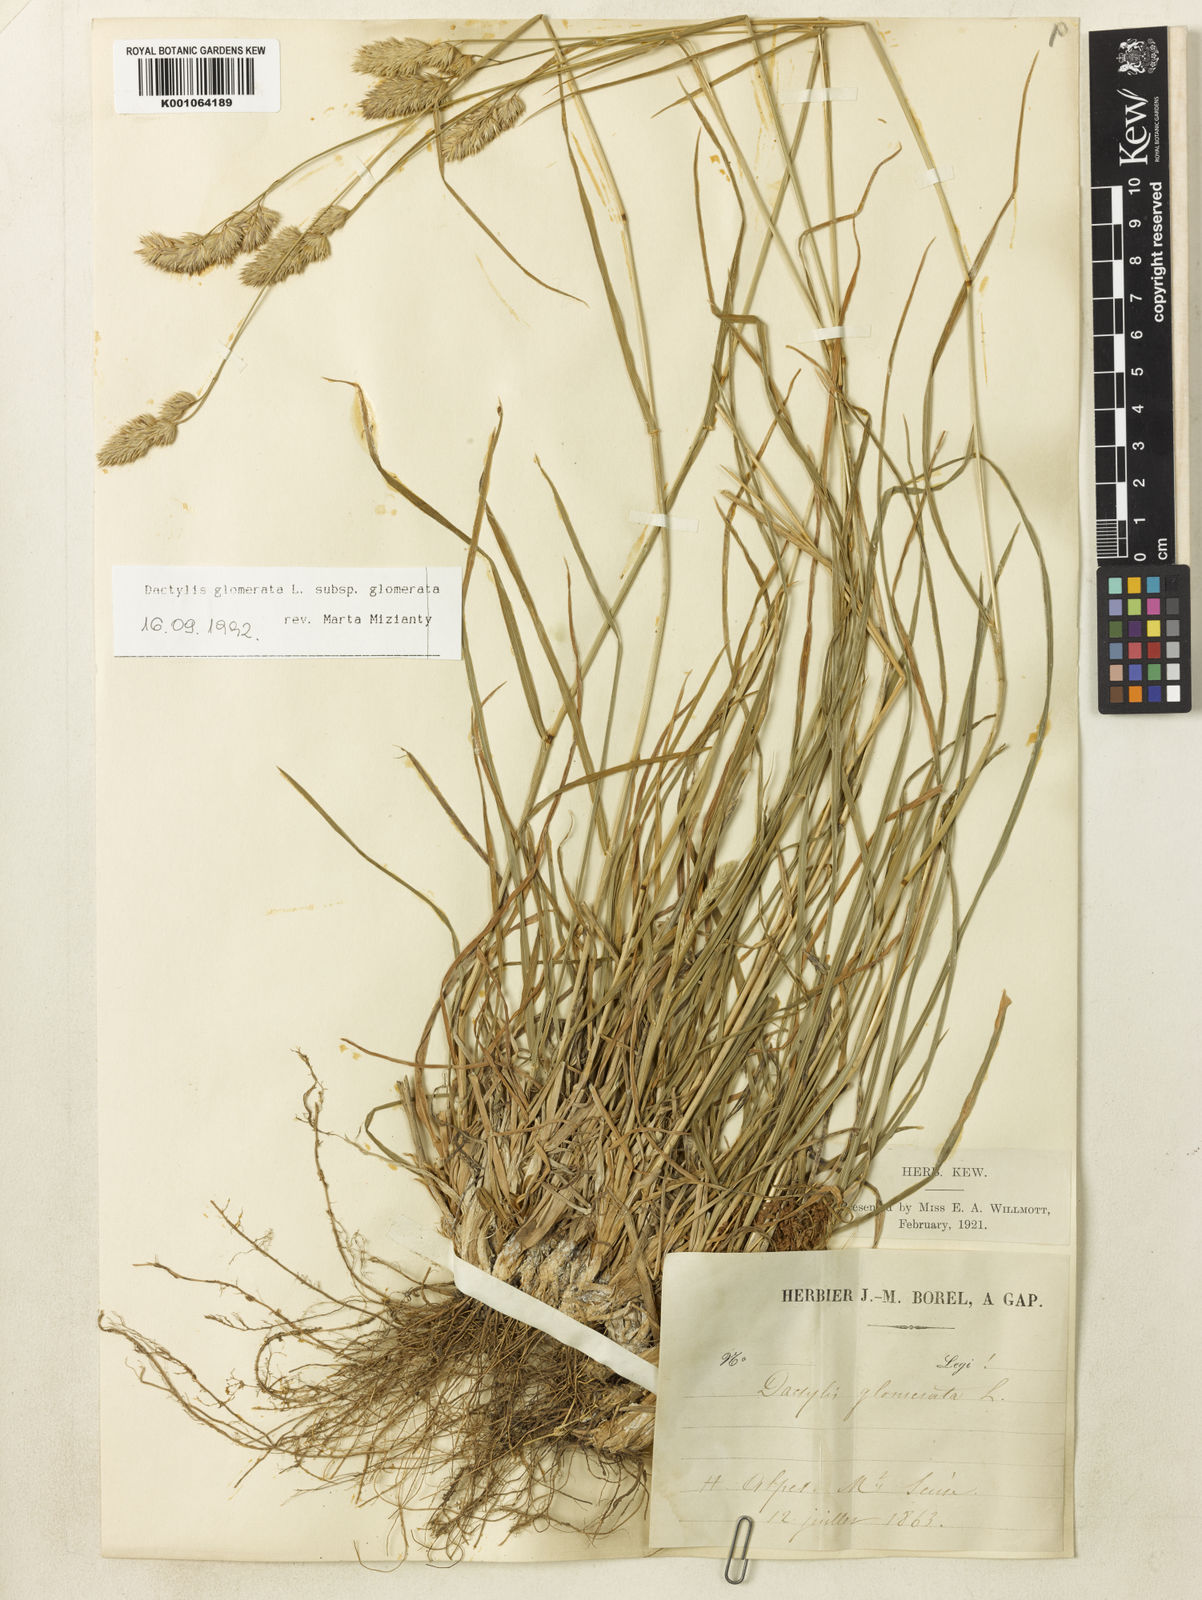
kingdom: Plantae
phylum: Tracheophyta
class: Liliopsida
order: Poales
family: Poaceae
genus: Dactylis
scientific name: Dactylis glomerata
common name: Orchardgrass
